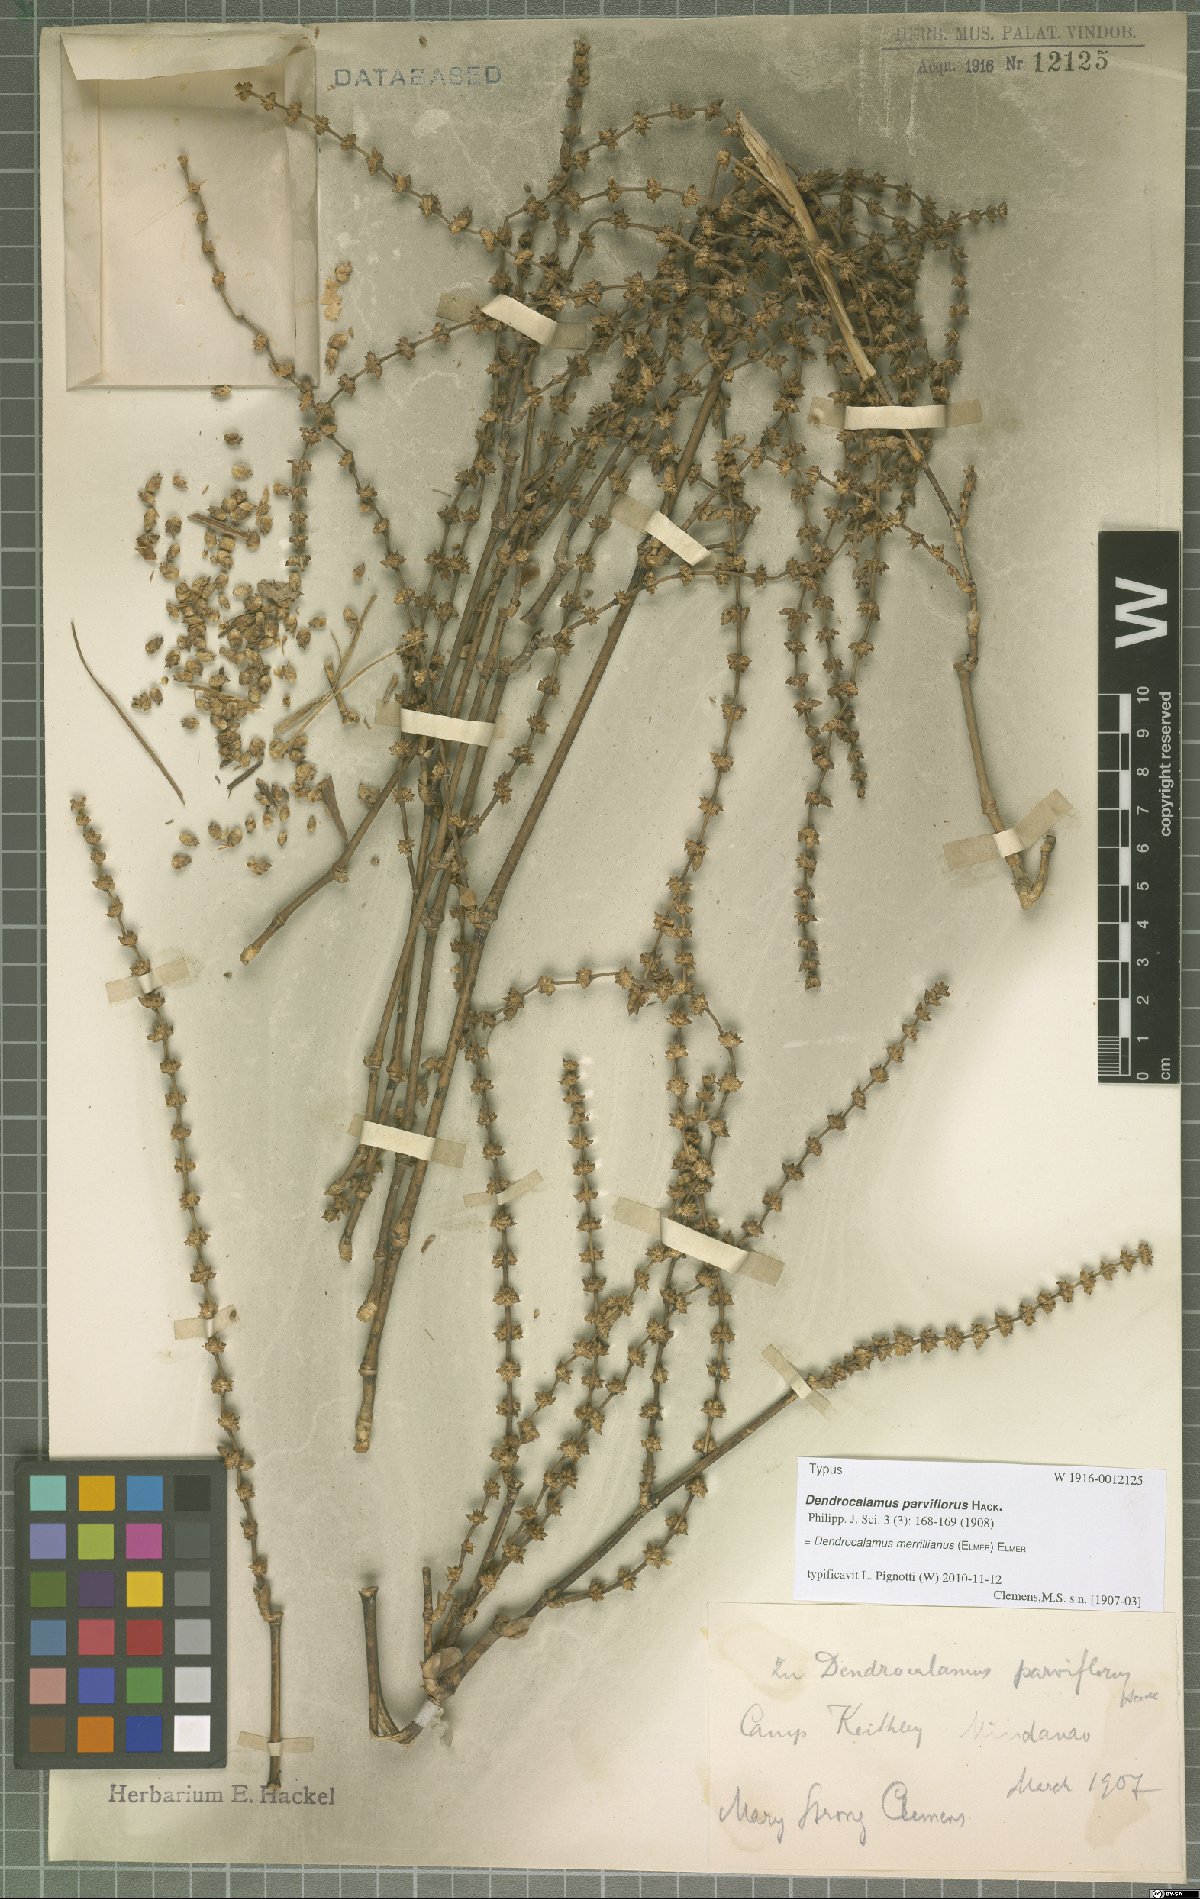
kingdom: Plantae
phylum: Tracheophyta
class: Liliopsida
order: Poales
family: Poaceae
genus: Dendrocalamus
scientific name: Dendrocalamus merrillianus
